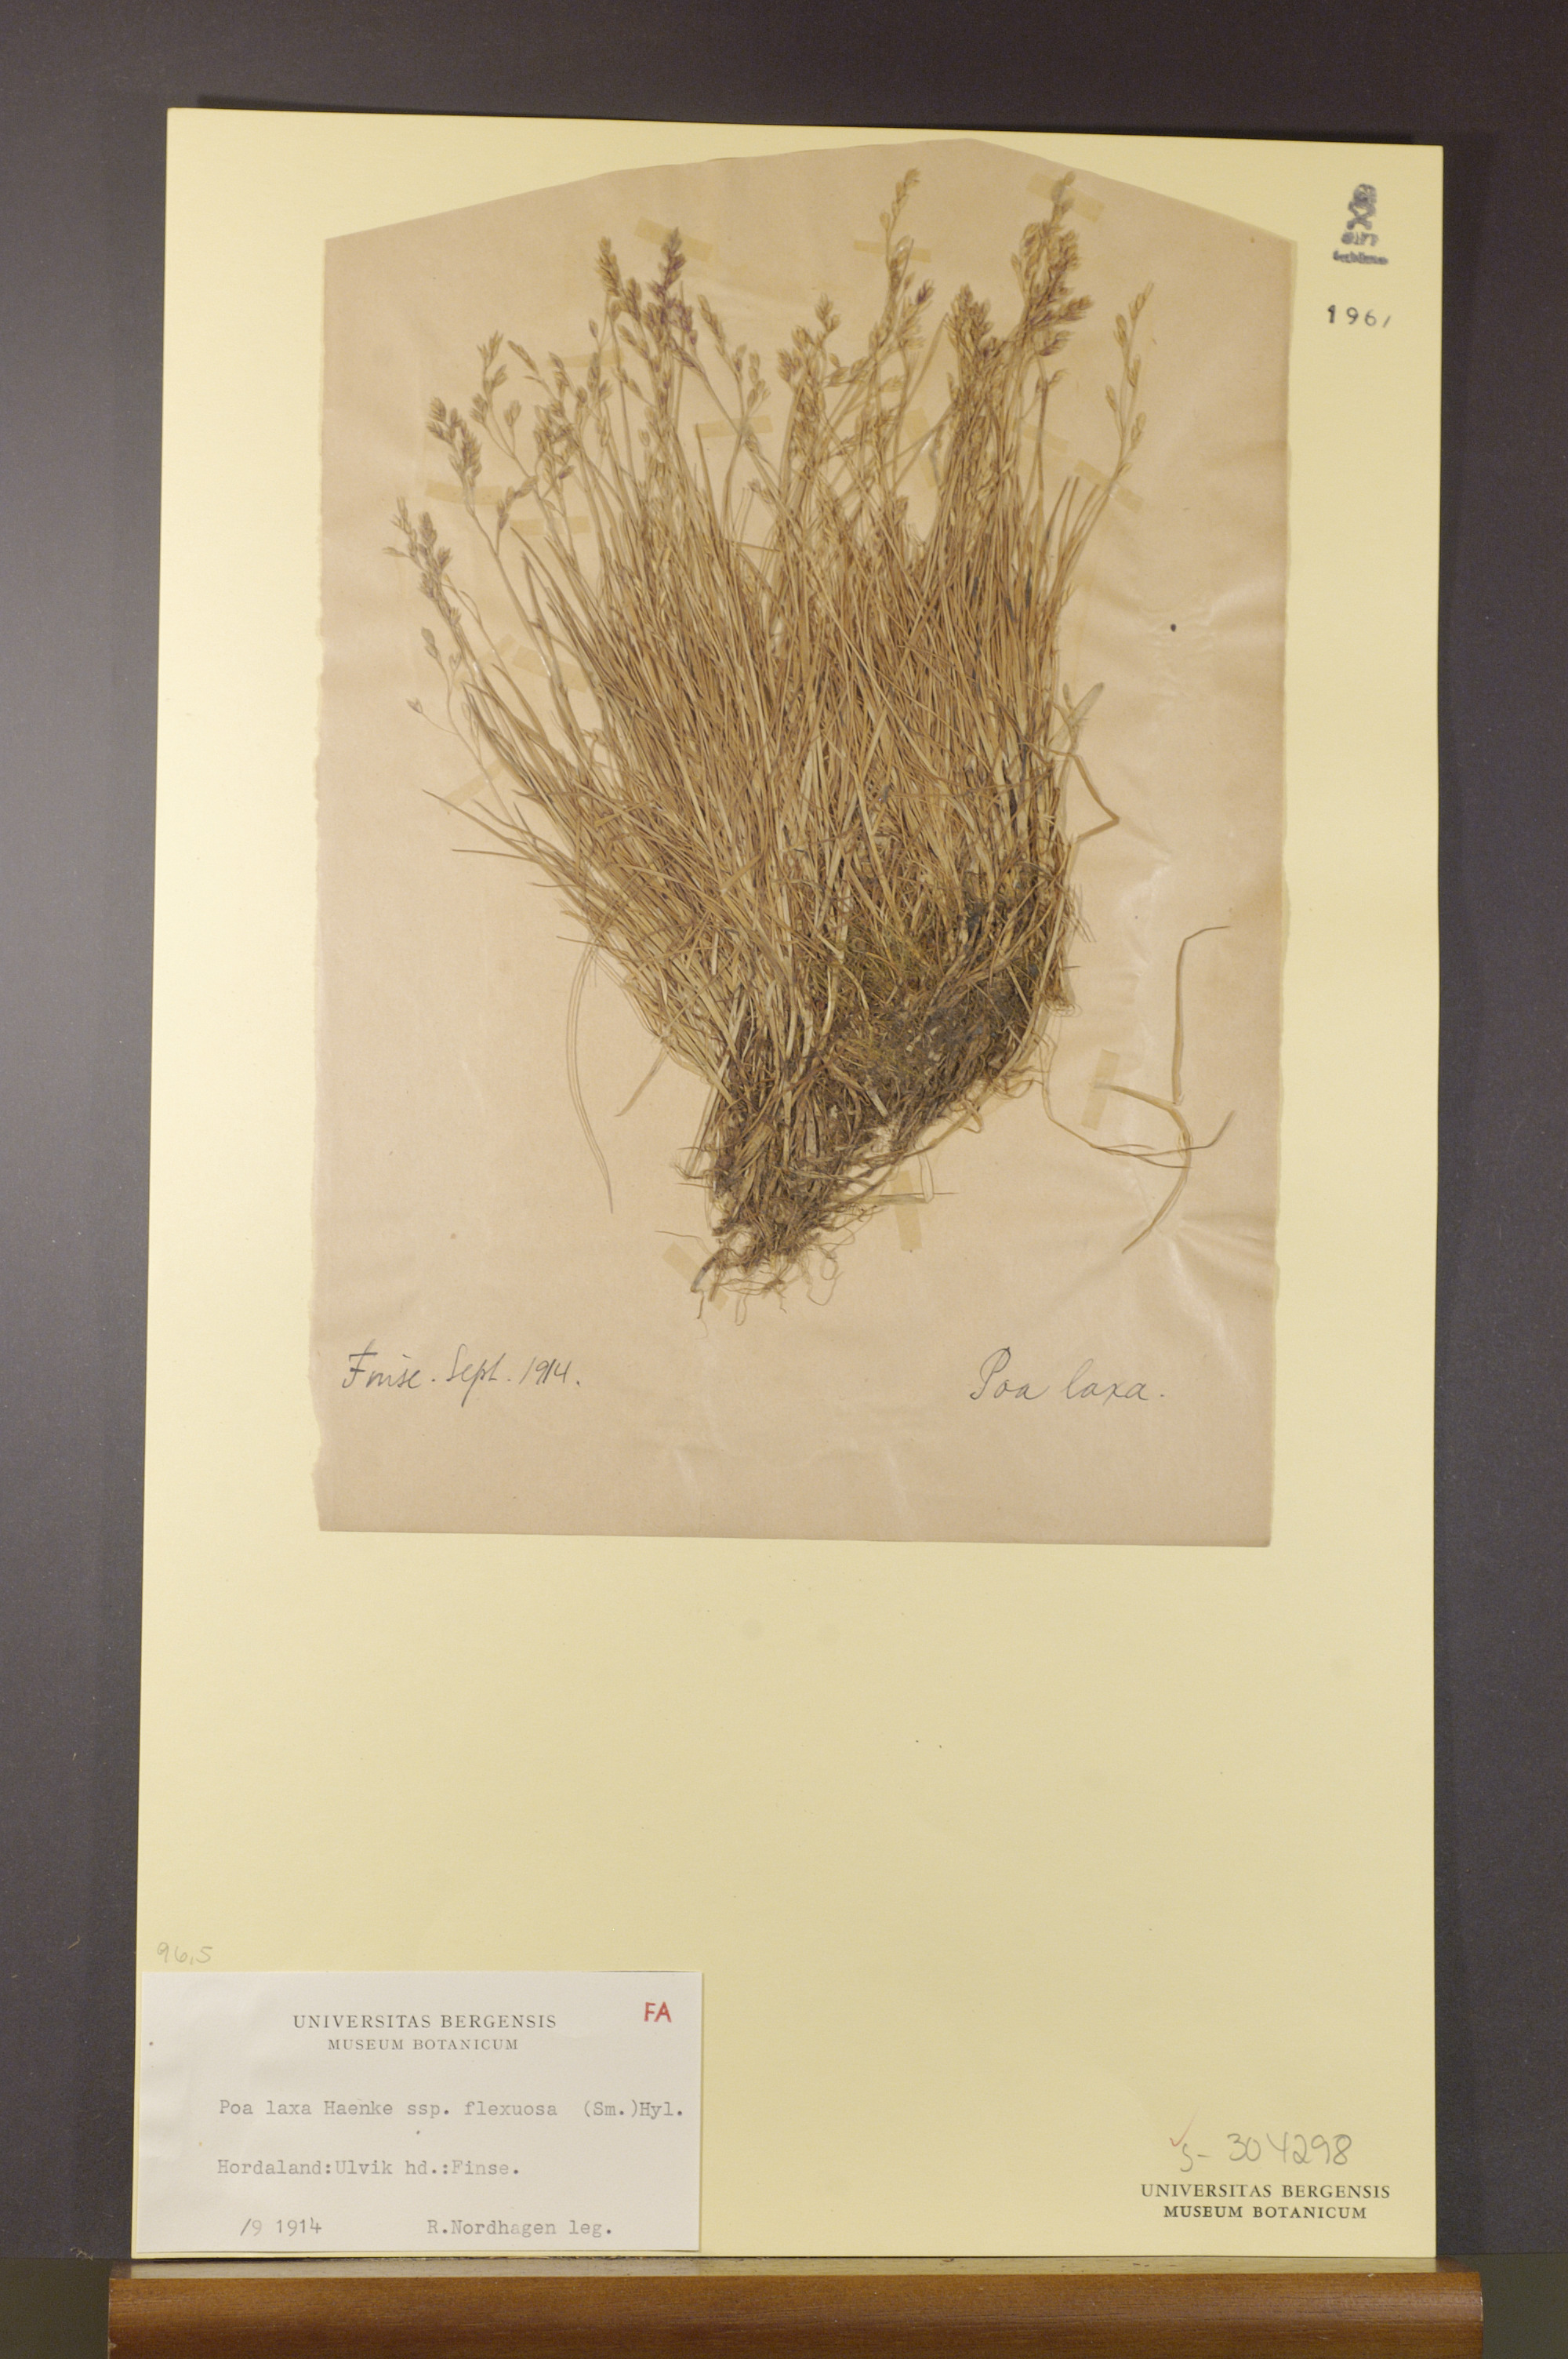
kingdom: Plantae
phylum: Tracheophyta
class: Liliopsida
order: Poales
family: Poaceae
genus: Poa
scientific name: Poa flexuosa
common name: Wavy meadow-grass
